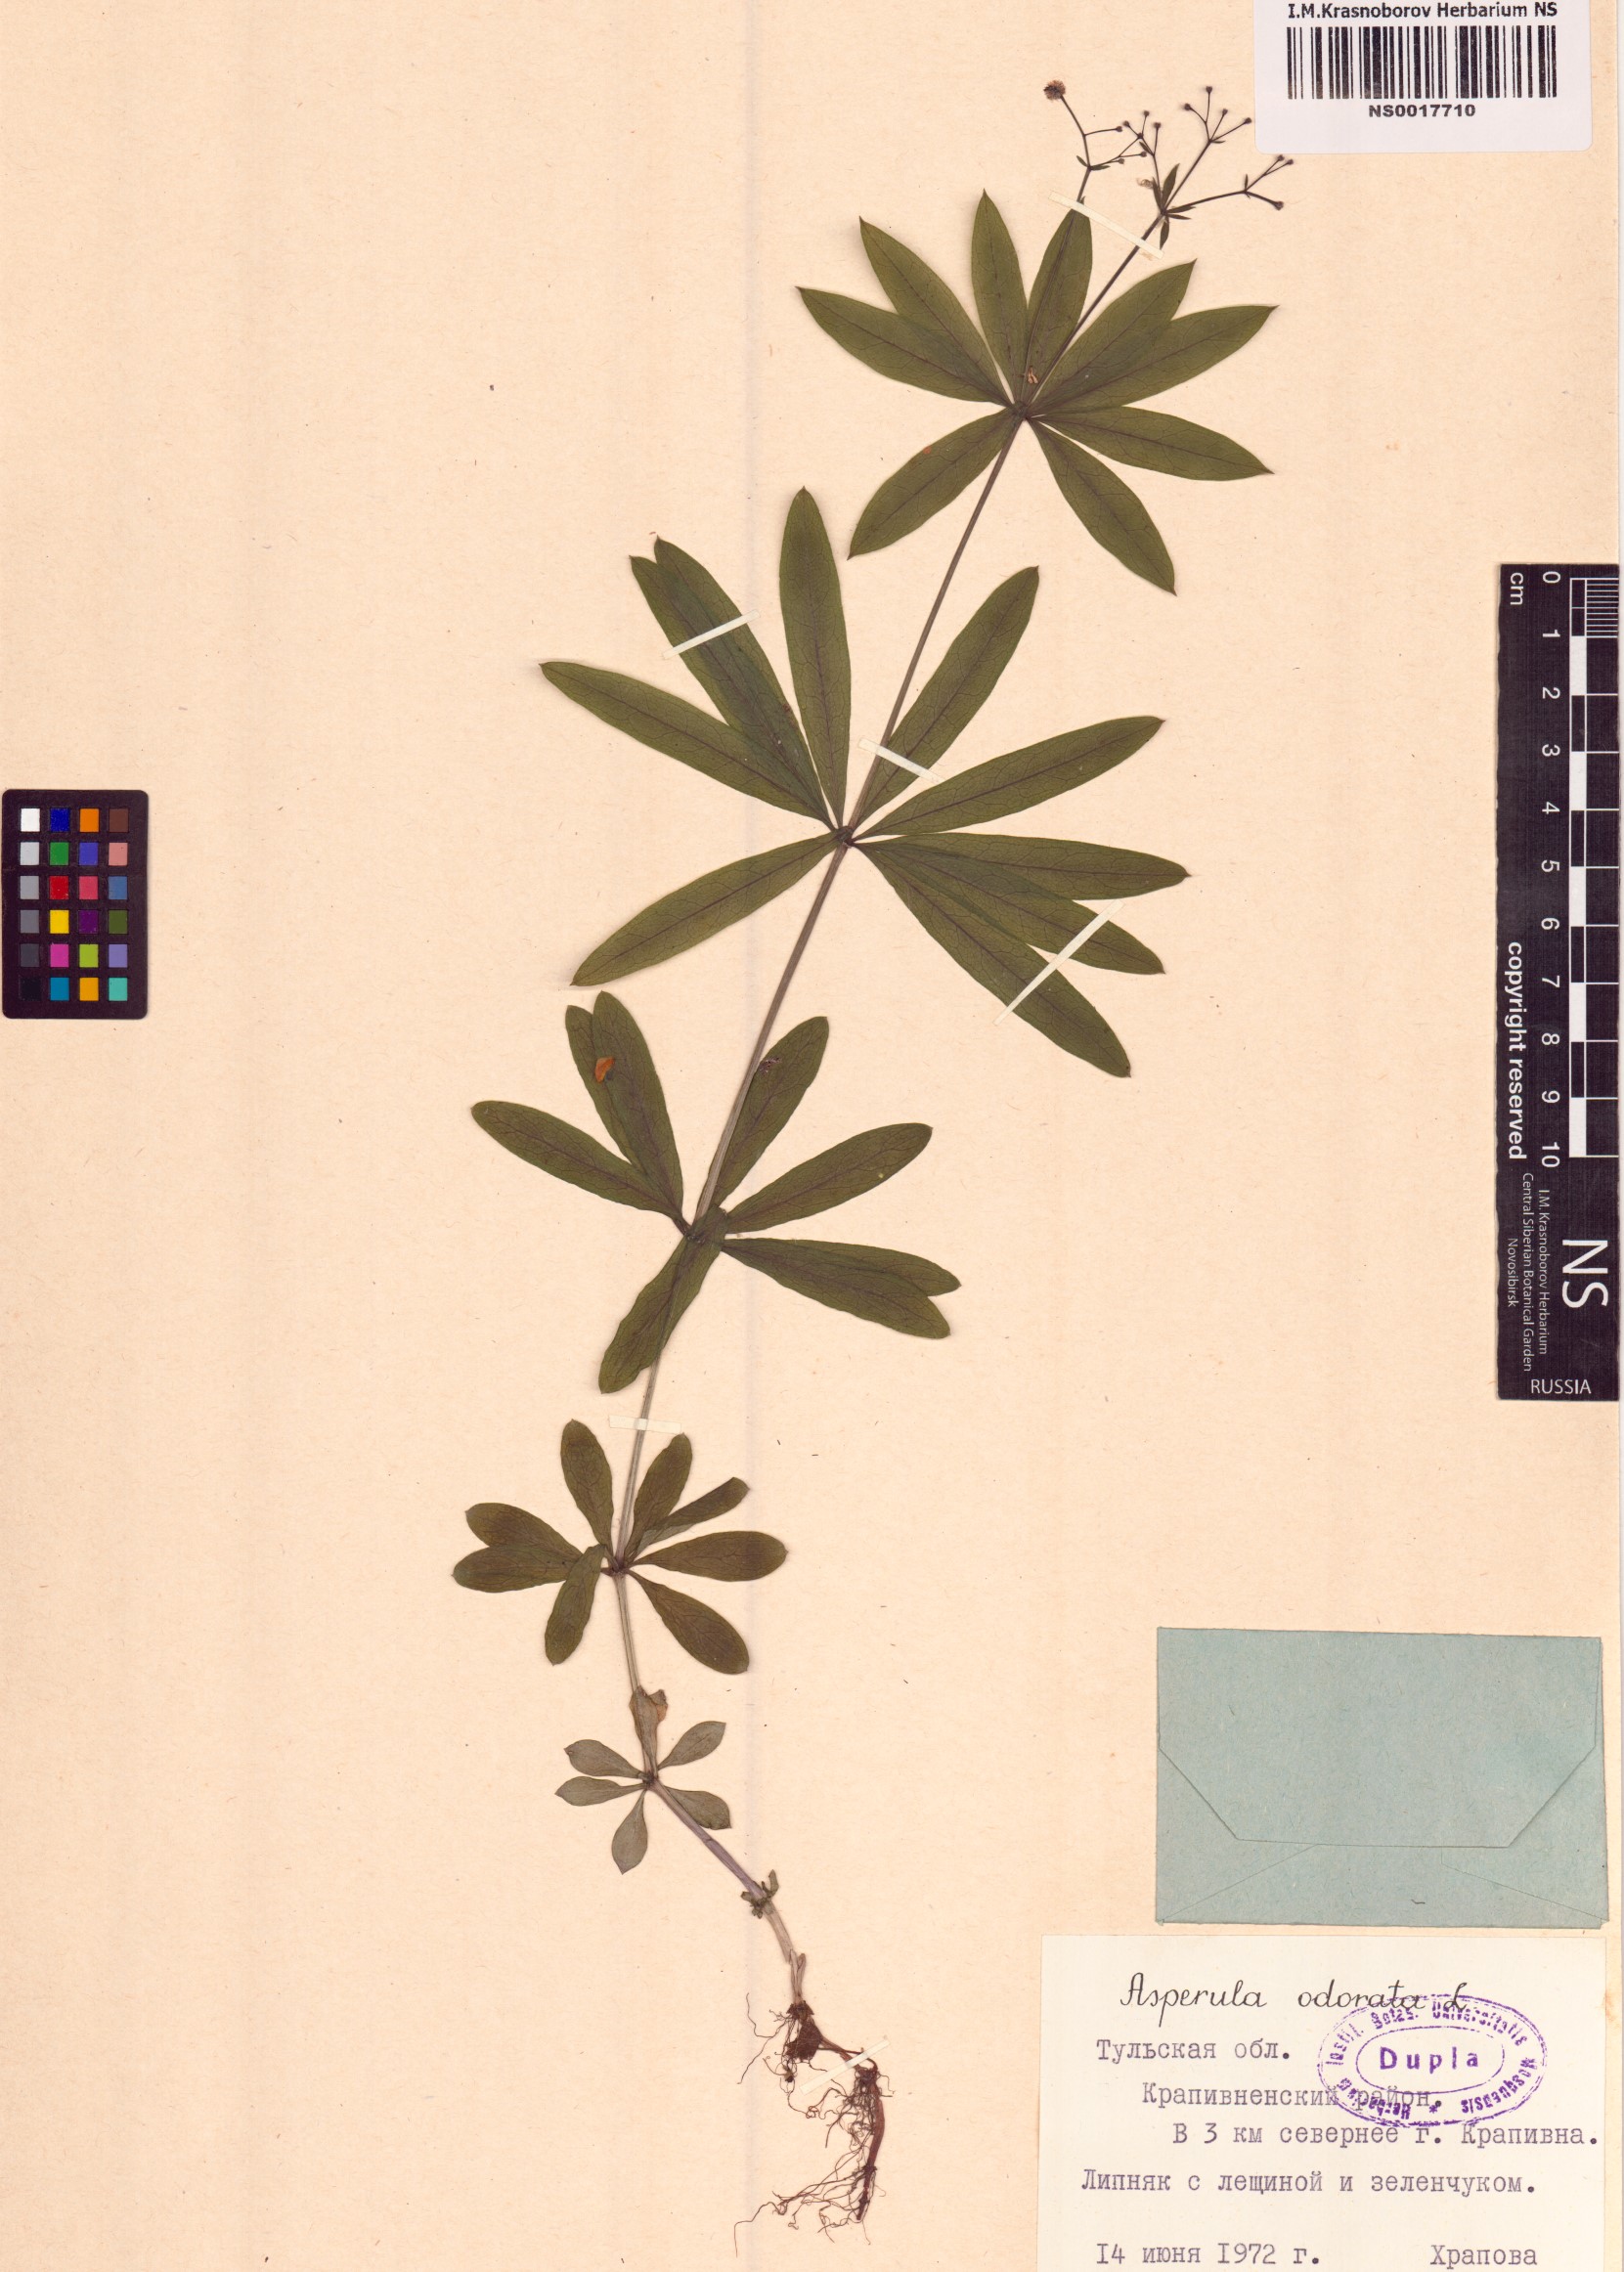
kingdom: Plantae
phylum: Tracheophyta
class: Magnoliopsida
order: Gentianales
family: Rubiaceae
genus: Galium
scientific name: Galium odoratum
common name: Sweet woodruff
